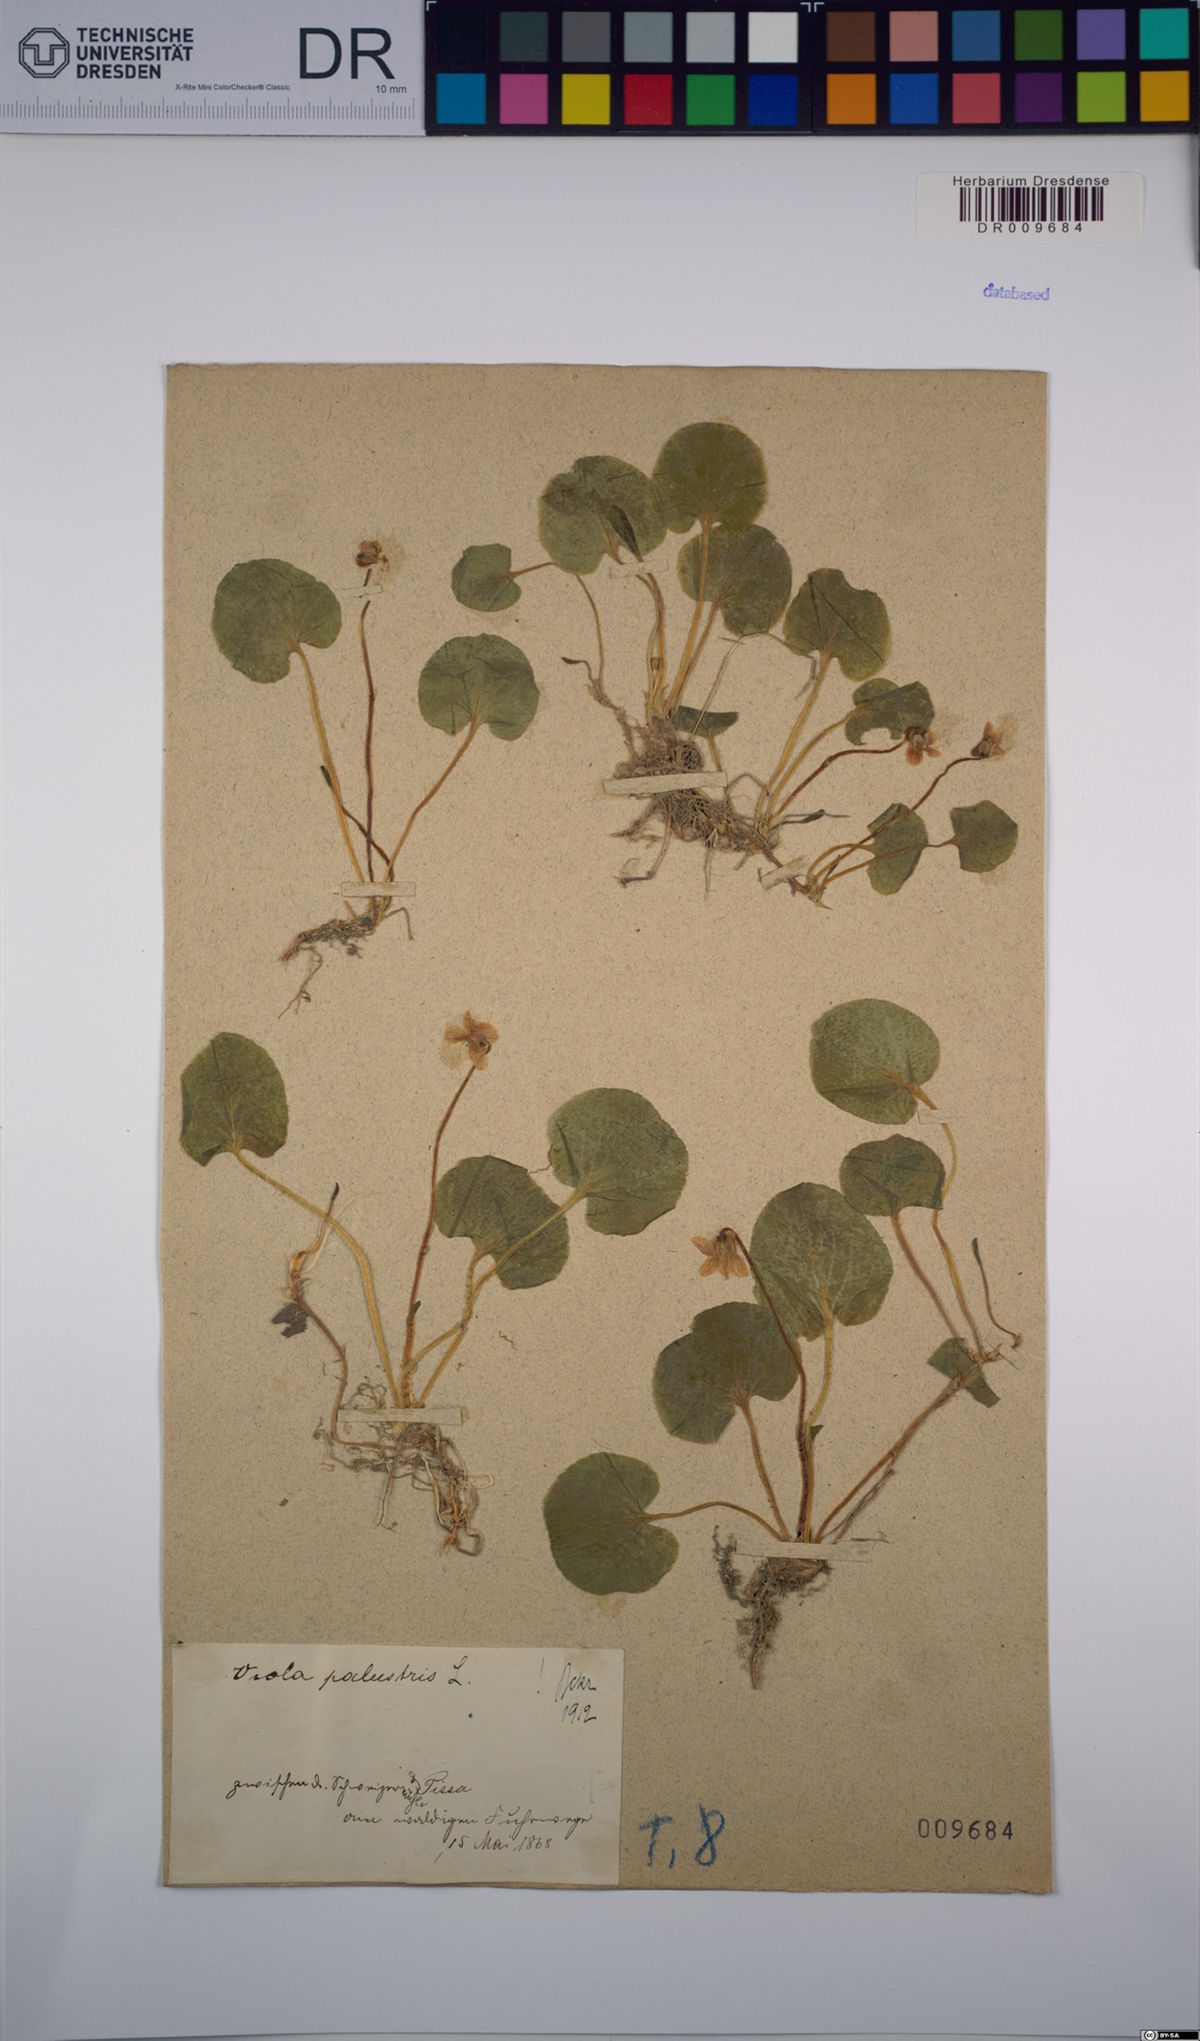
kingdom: Plantae
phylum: Tracheophyta
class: Magnoliopsida
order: Malpighiales
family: Violaceae
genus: Viola
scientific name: Viola palustris
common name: Marsh violet
